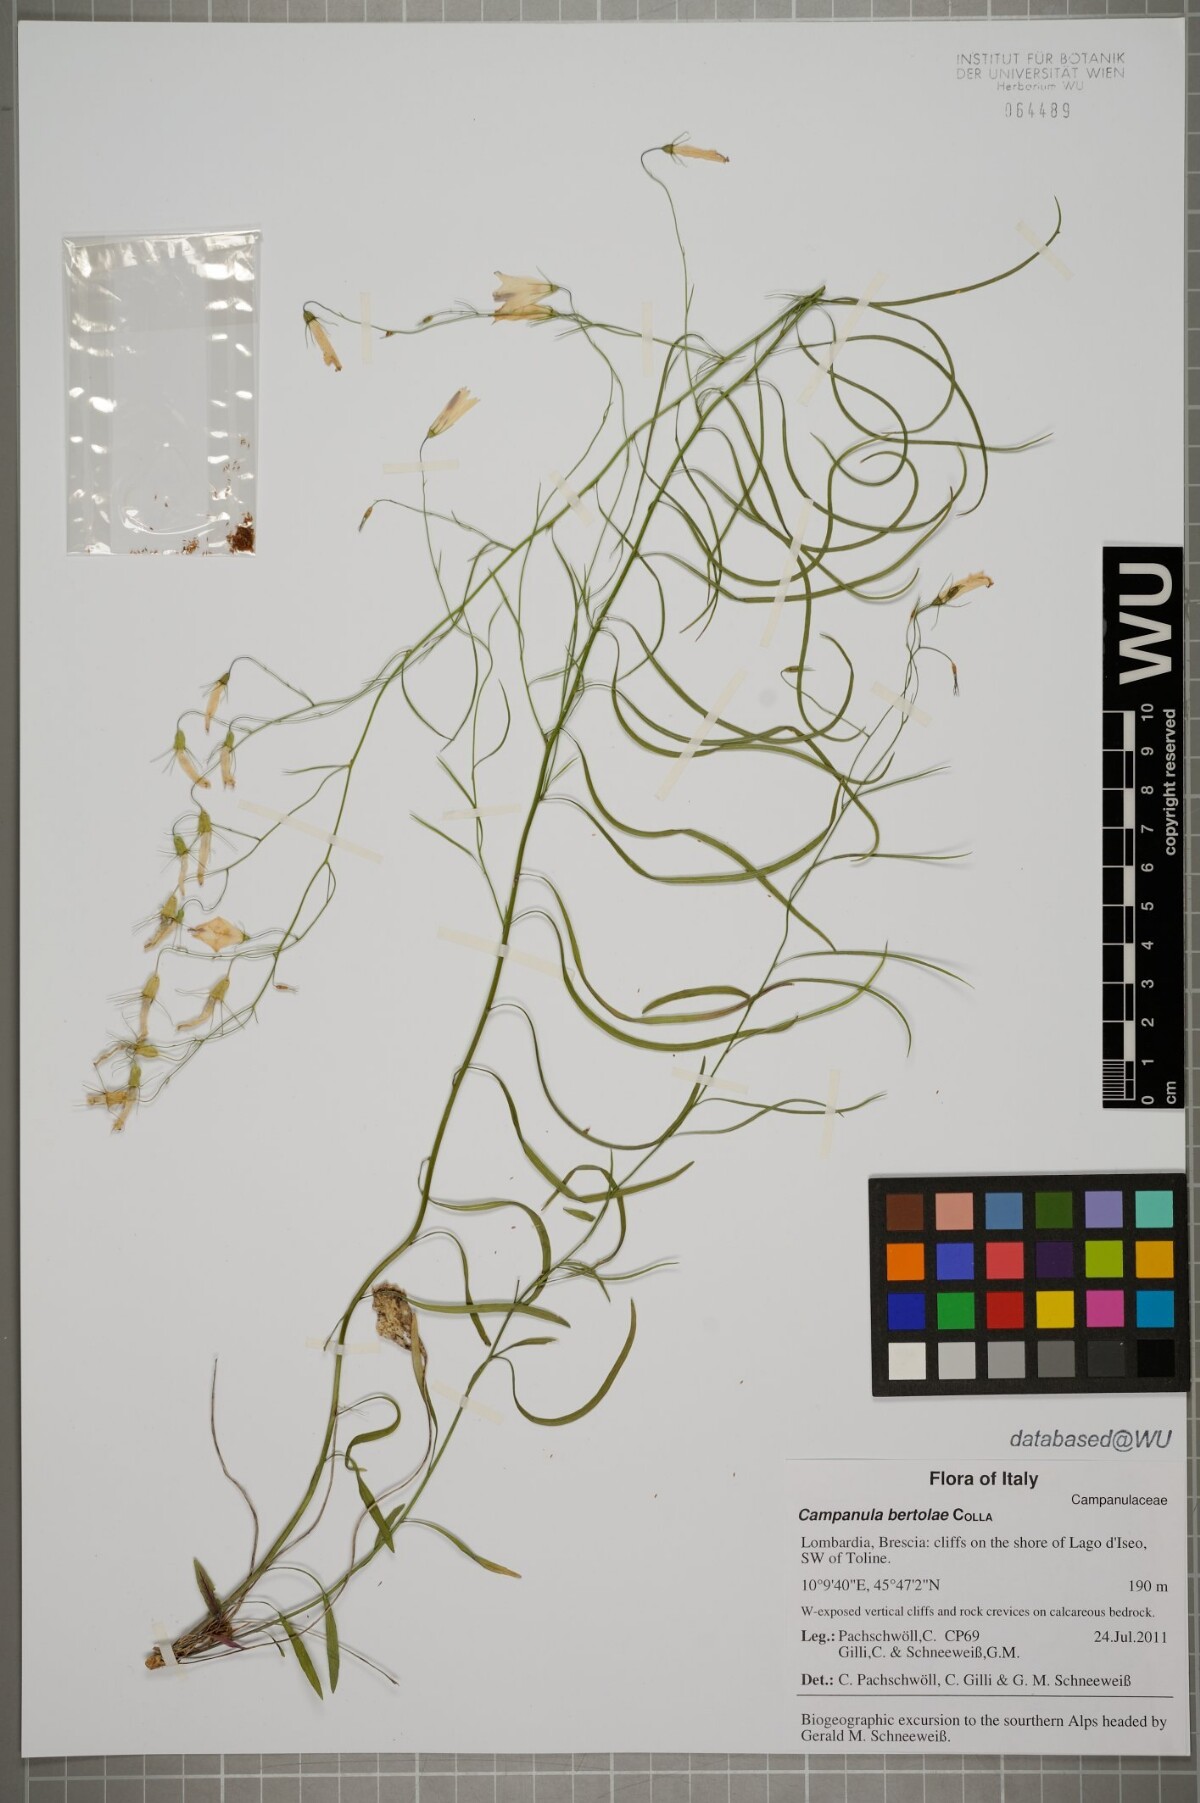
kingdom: Plantae
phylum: Tracheophyta
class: Magnoliopsida
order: Asterales
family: Campanulaceae
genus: Campanula
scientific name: Campanula bertolae
